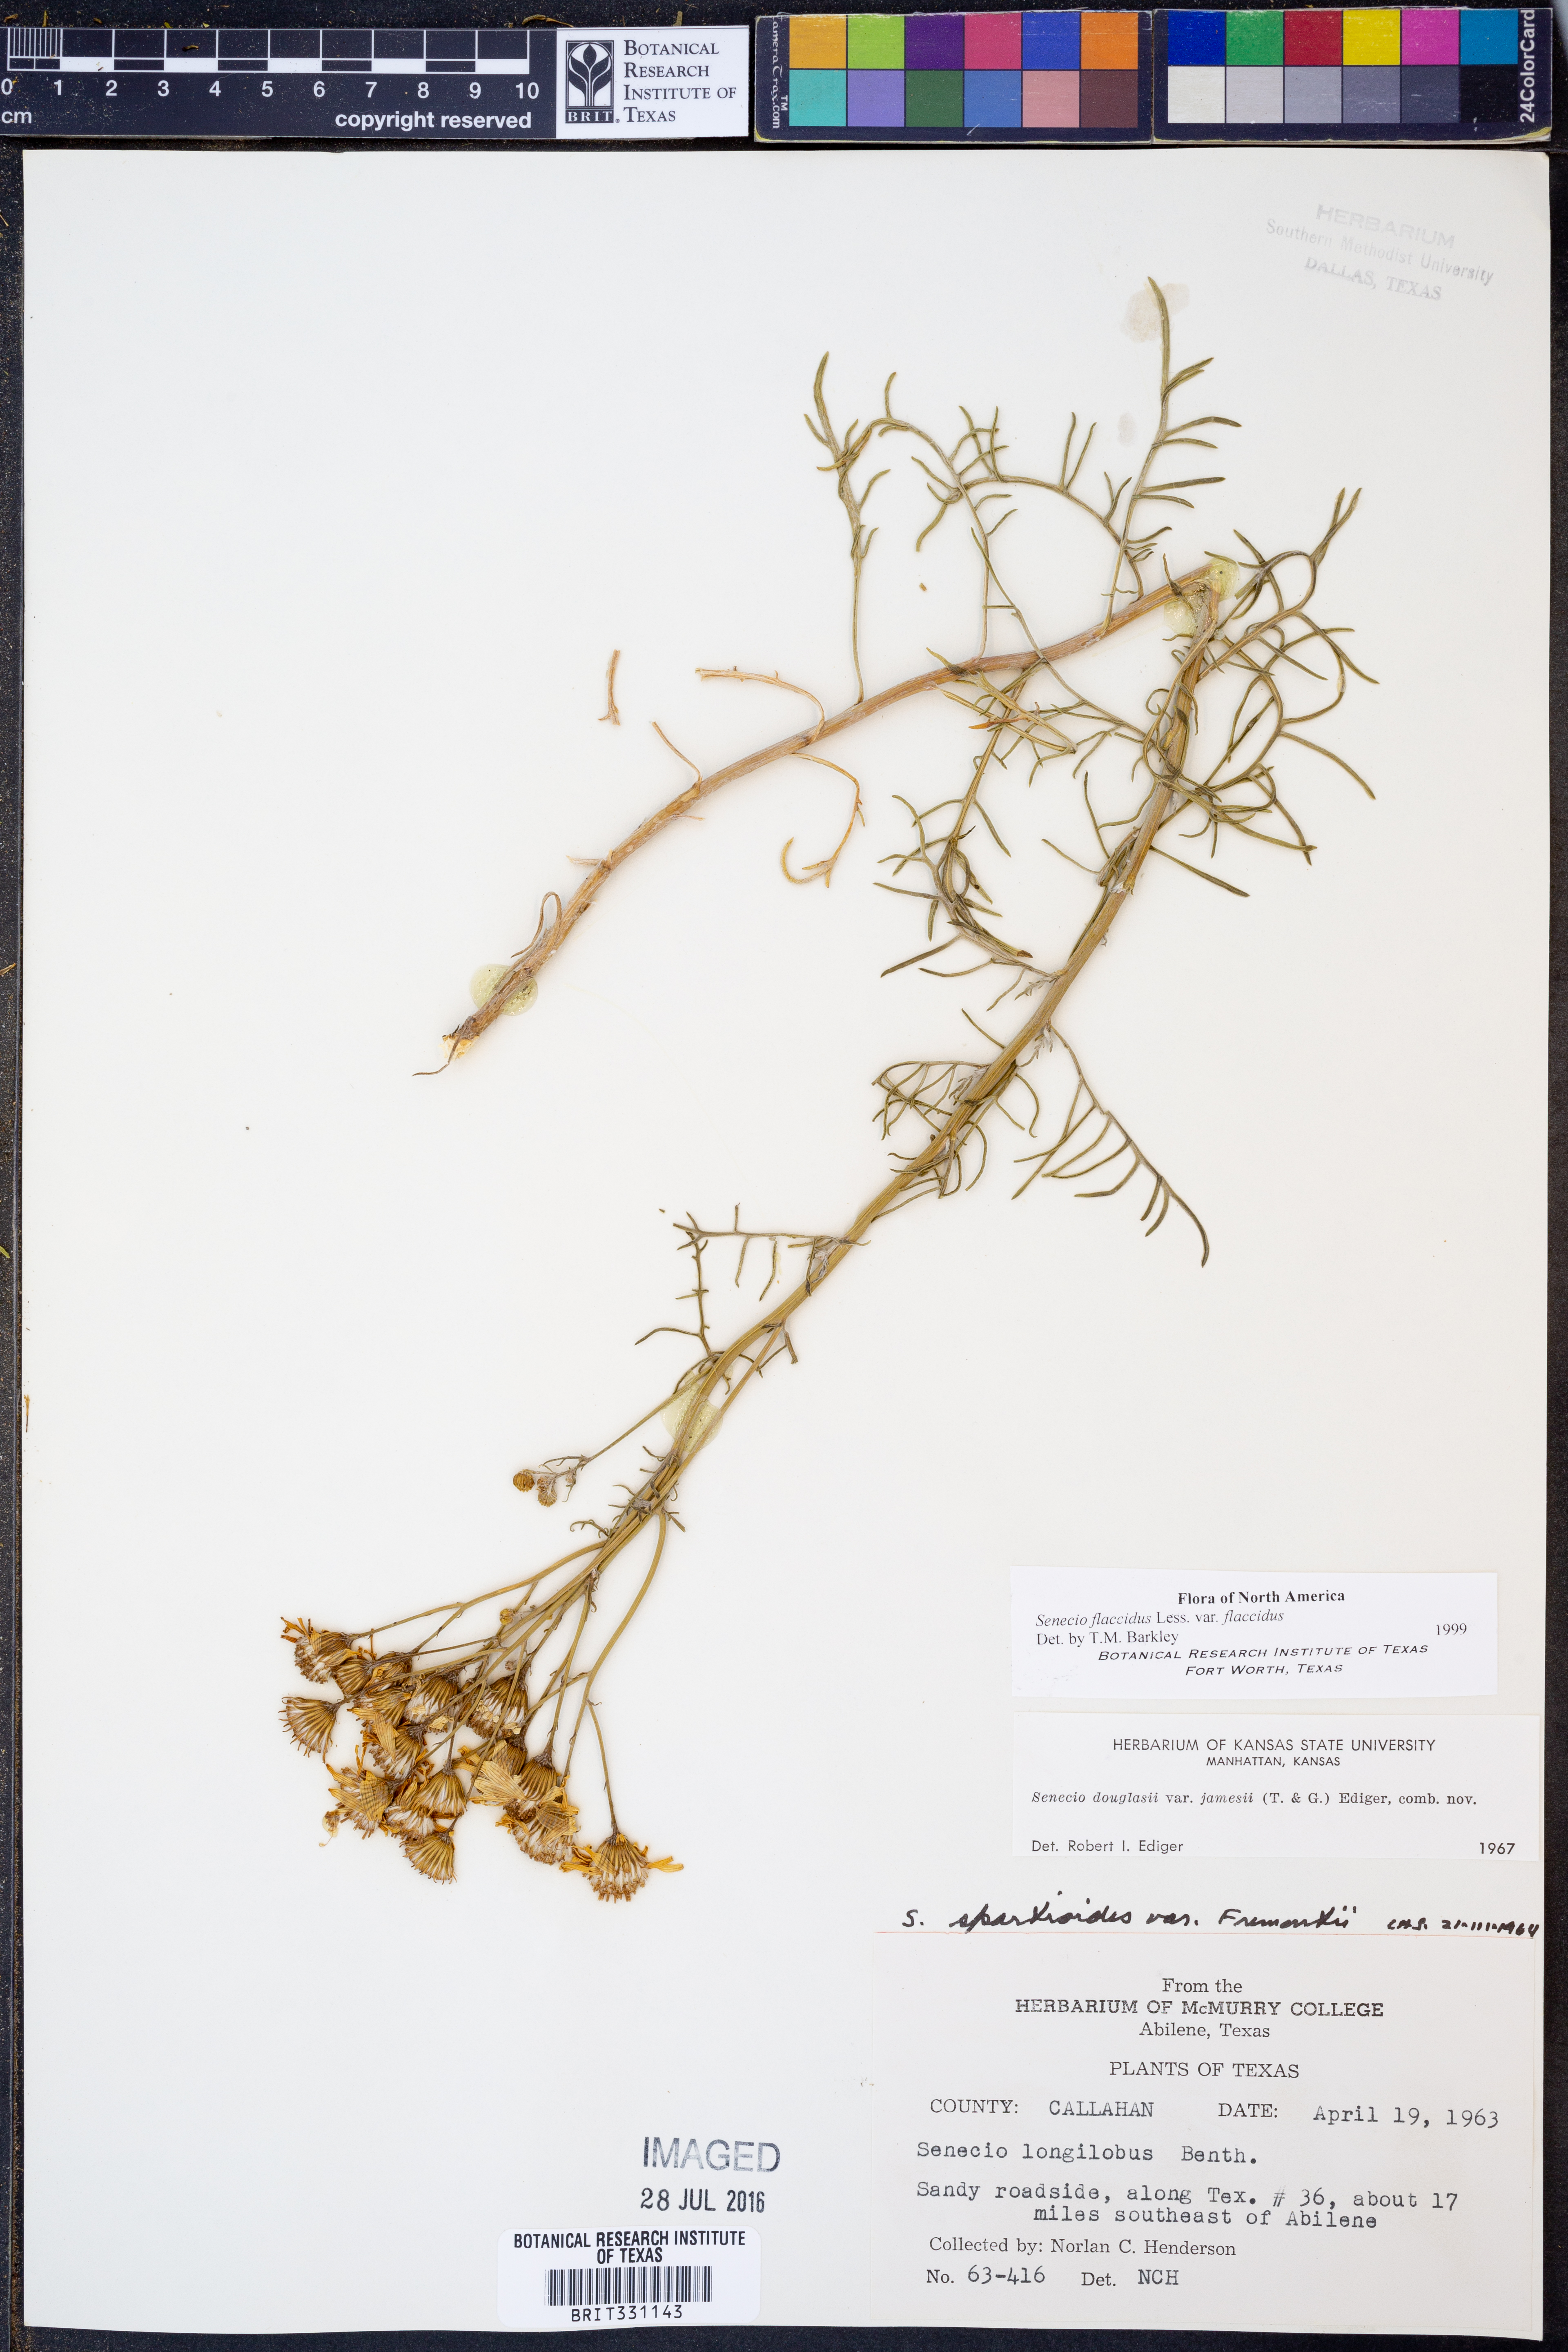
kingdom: Plantae
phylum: Tracheophyta
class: Magnoliopsida
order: Asterales
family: Asteraceae
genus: Senecio
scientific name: Senecio flaccidus
